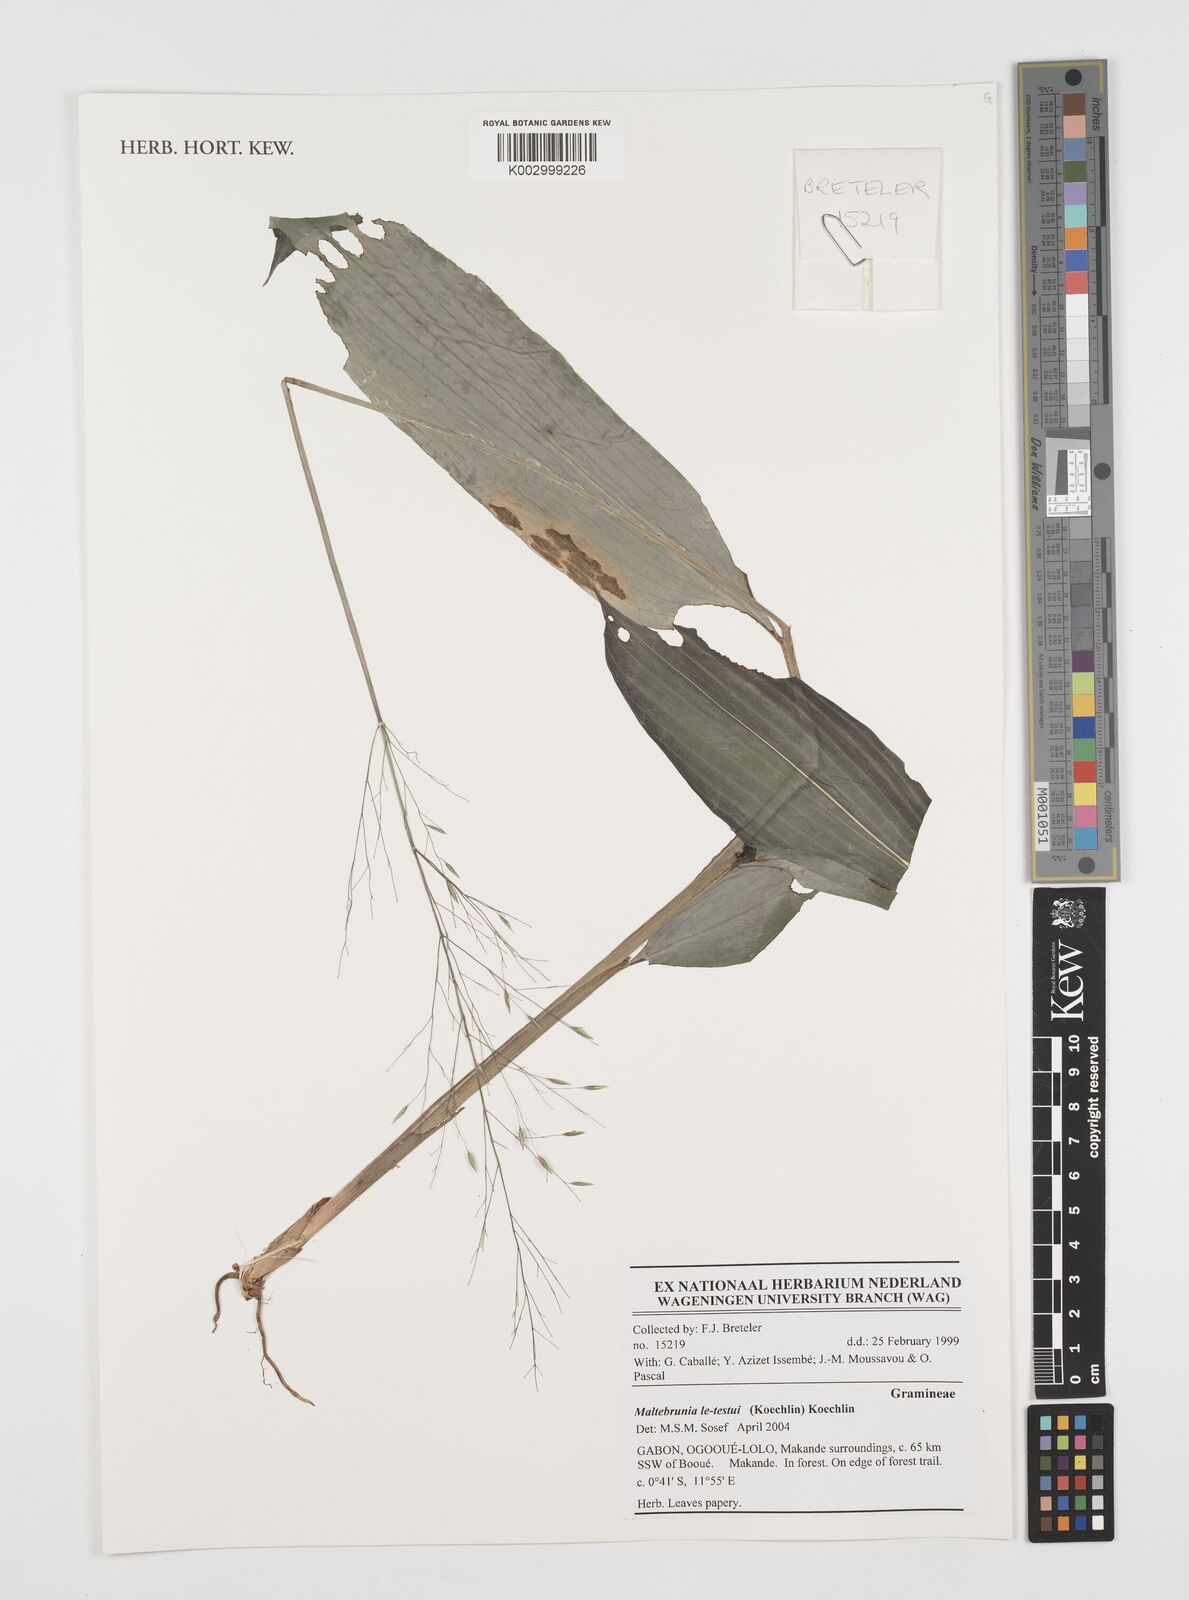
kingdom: Plantae
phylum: Tracheophyta
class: Liliopsida
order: Poales
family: Poaceae
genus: Maltebrunia
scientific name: Maltebrunia letestui
